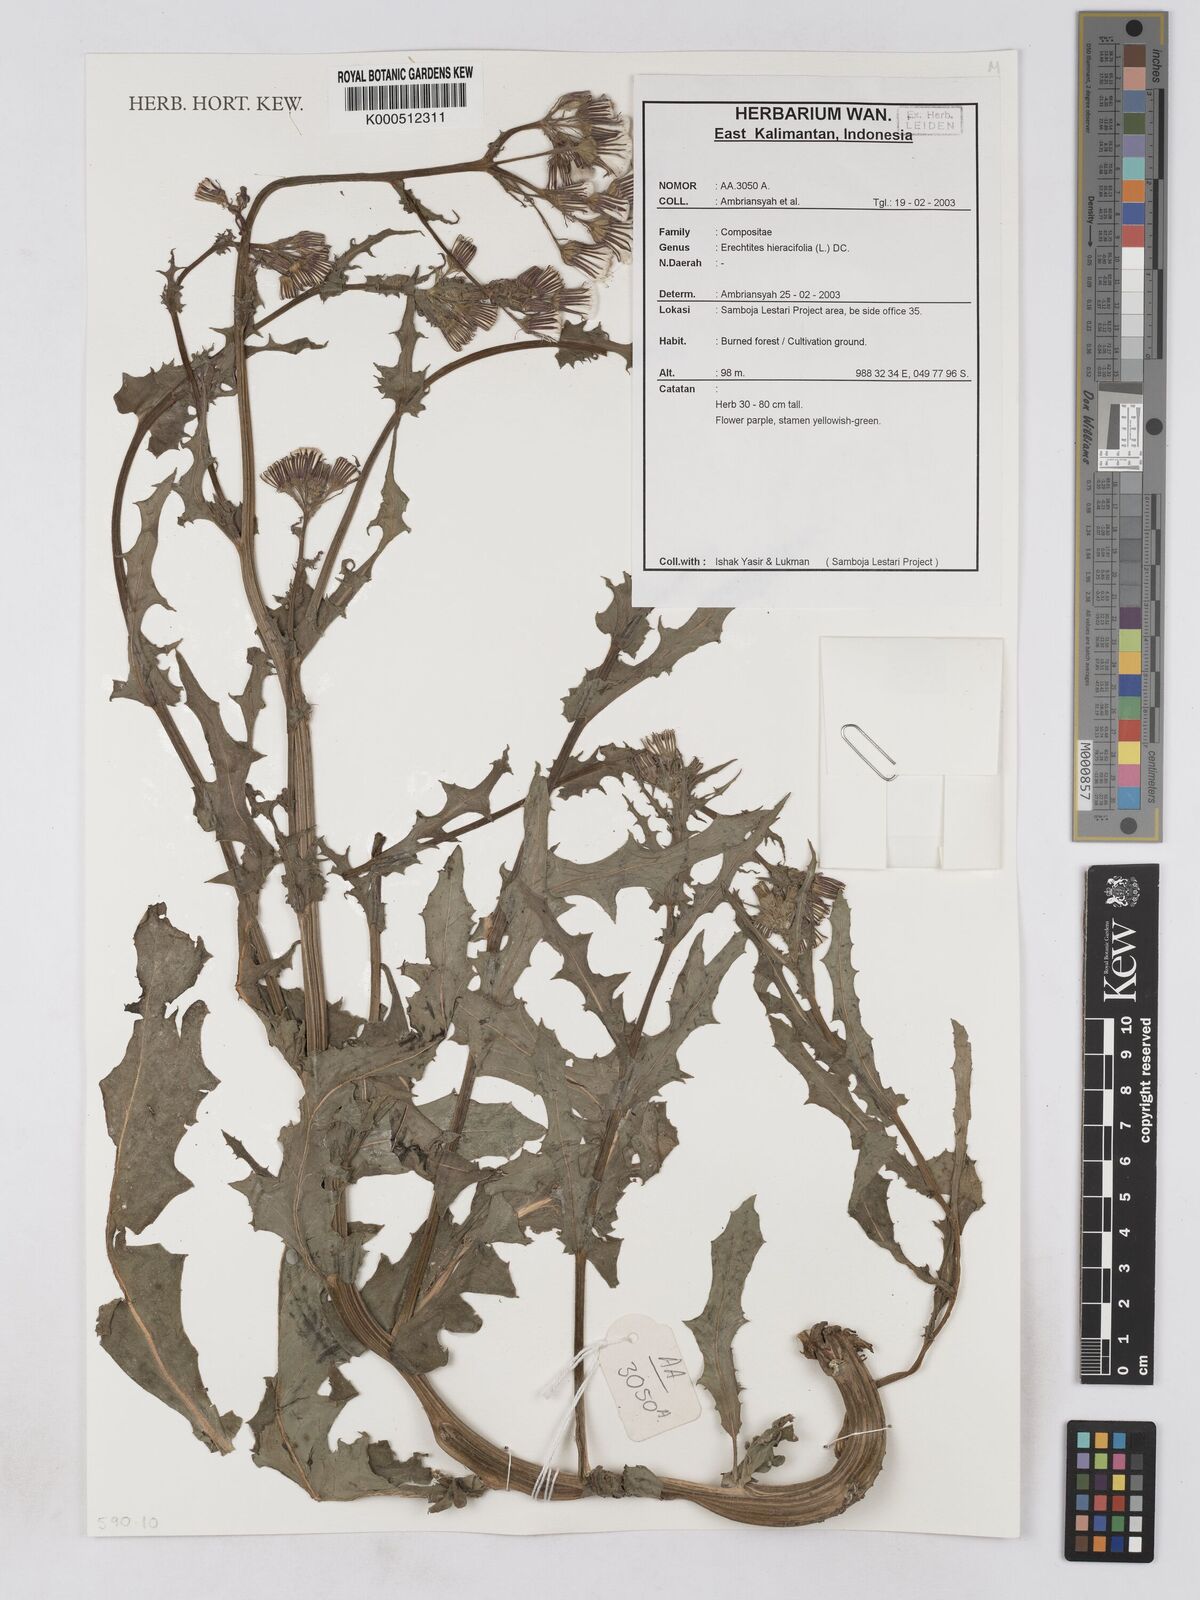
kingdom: Plantae
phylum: Tracheophyta
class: Magnoliopsida
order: Asterales
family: Asteraceae
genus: Erechtites
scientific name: Erechtites hieraciifolius
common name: American burnweed
